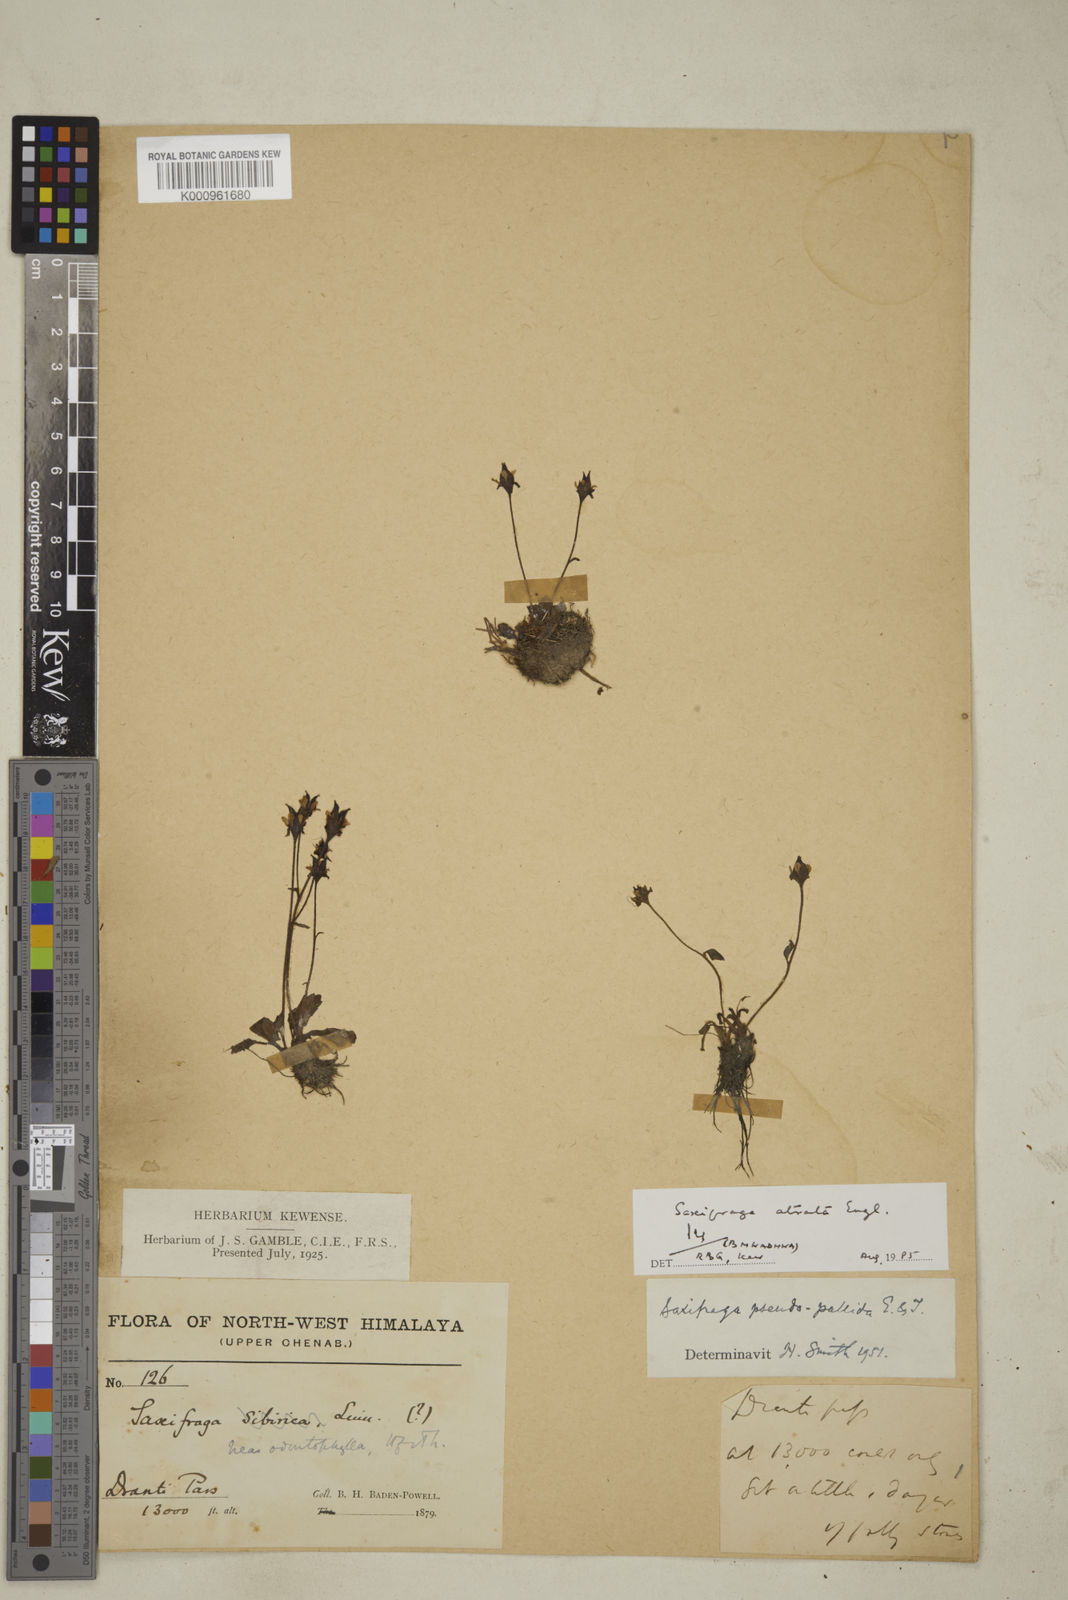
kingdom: Plantae
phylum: Tracheophyta
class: Magnoliopsida
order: Saxifragales
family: Saxifragaceae
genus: Micranthes
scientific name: Micranthes atrata
